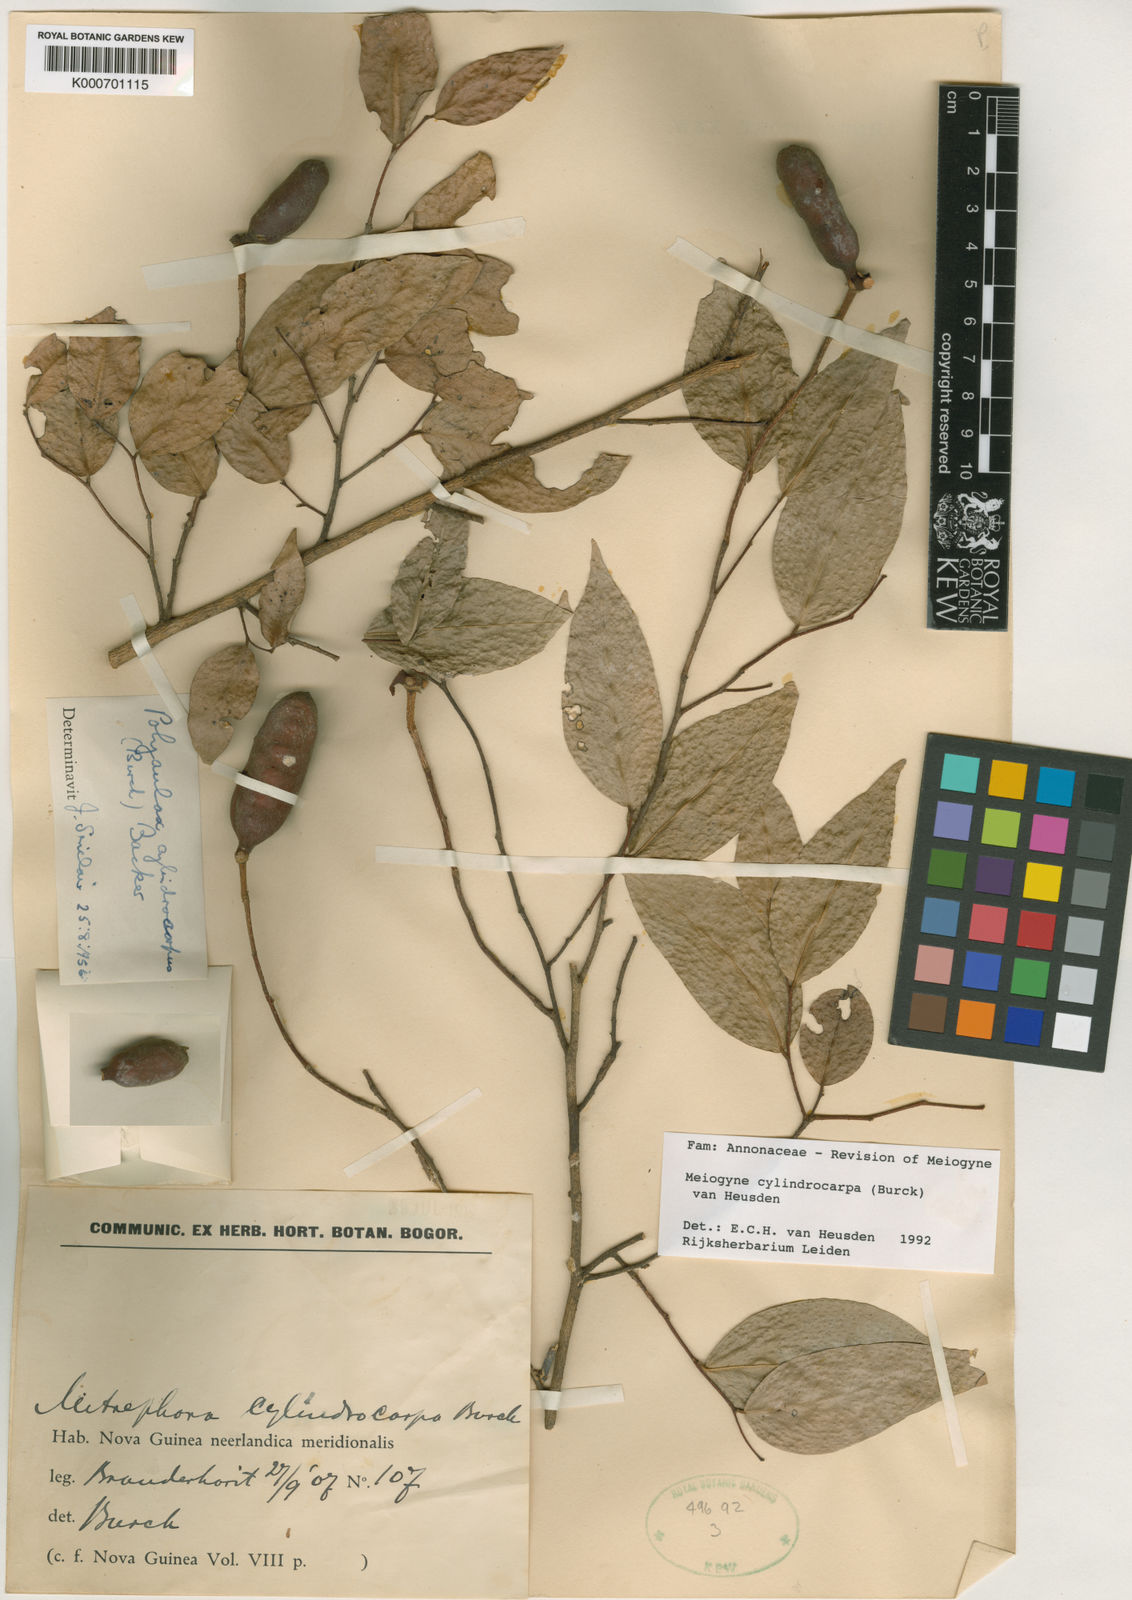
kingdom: Plantae
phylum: Tracheophyta
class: Magnoliopsida
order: Magnoliales
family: Annonaceae
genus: Meiogyne
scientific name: Meiogyne
